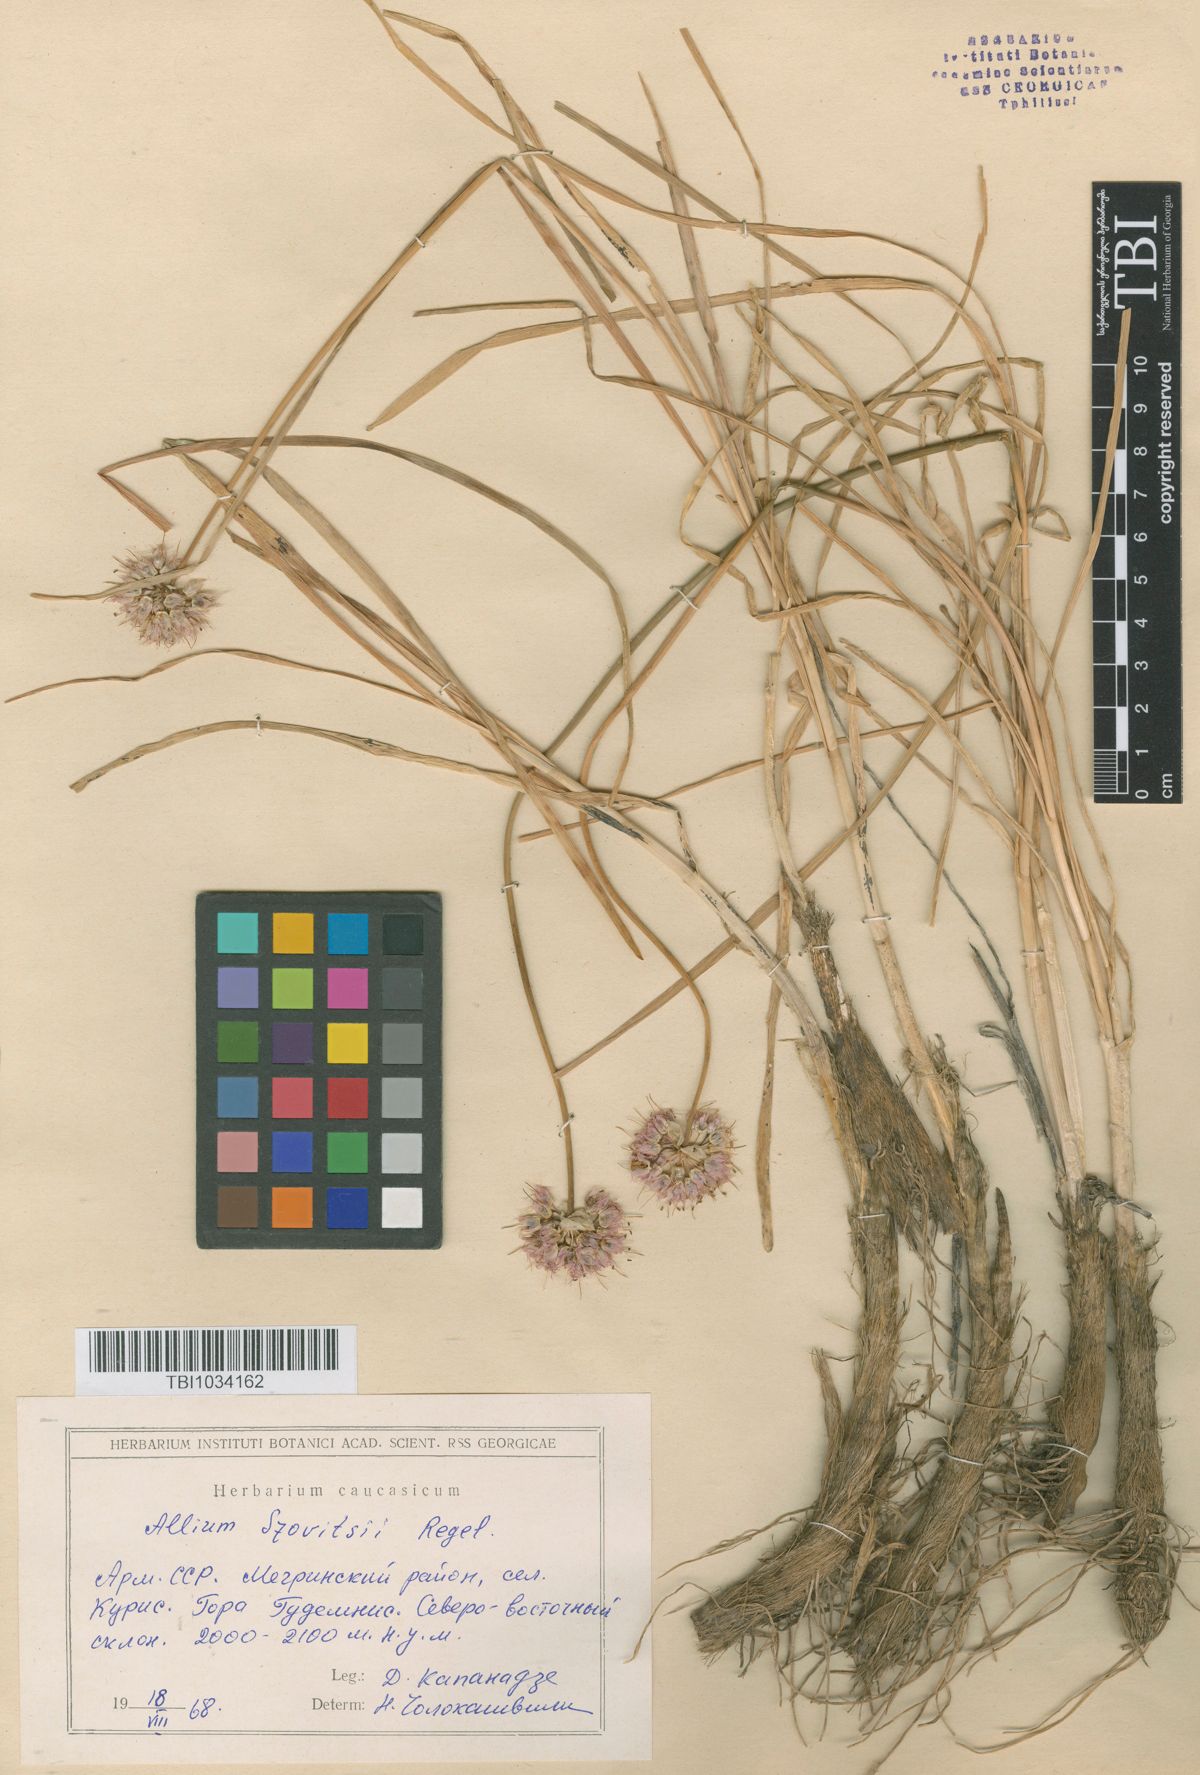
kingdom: Plantae
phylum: Tracheophyta
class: Liliopsida
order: Asparagales
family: Amaryllidaceae
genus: Allium
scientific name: Allium szovitsii
